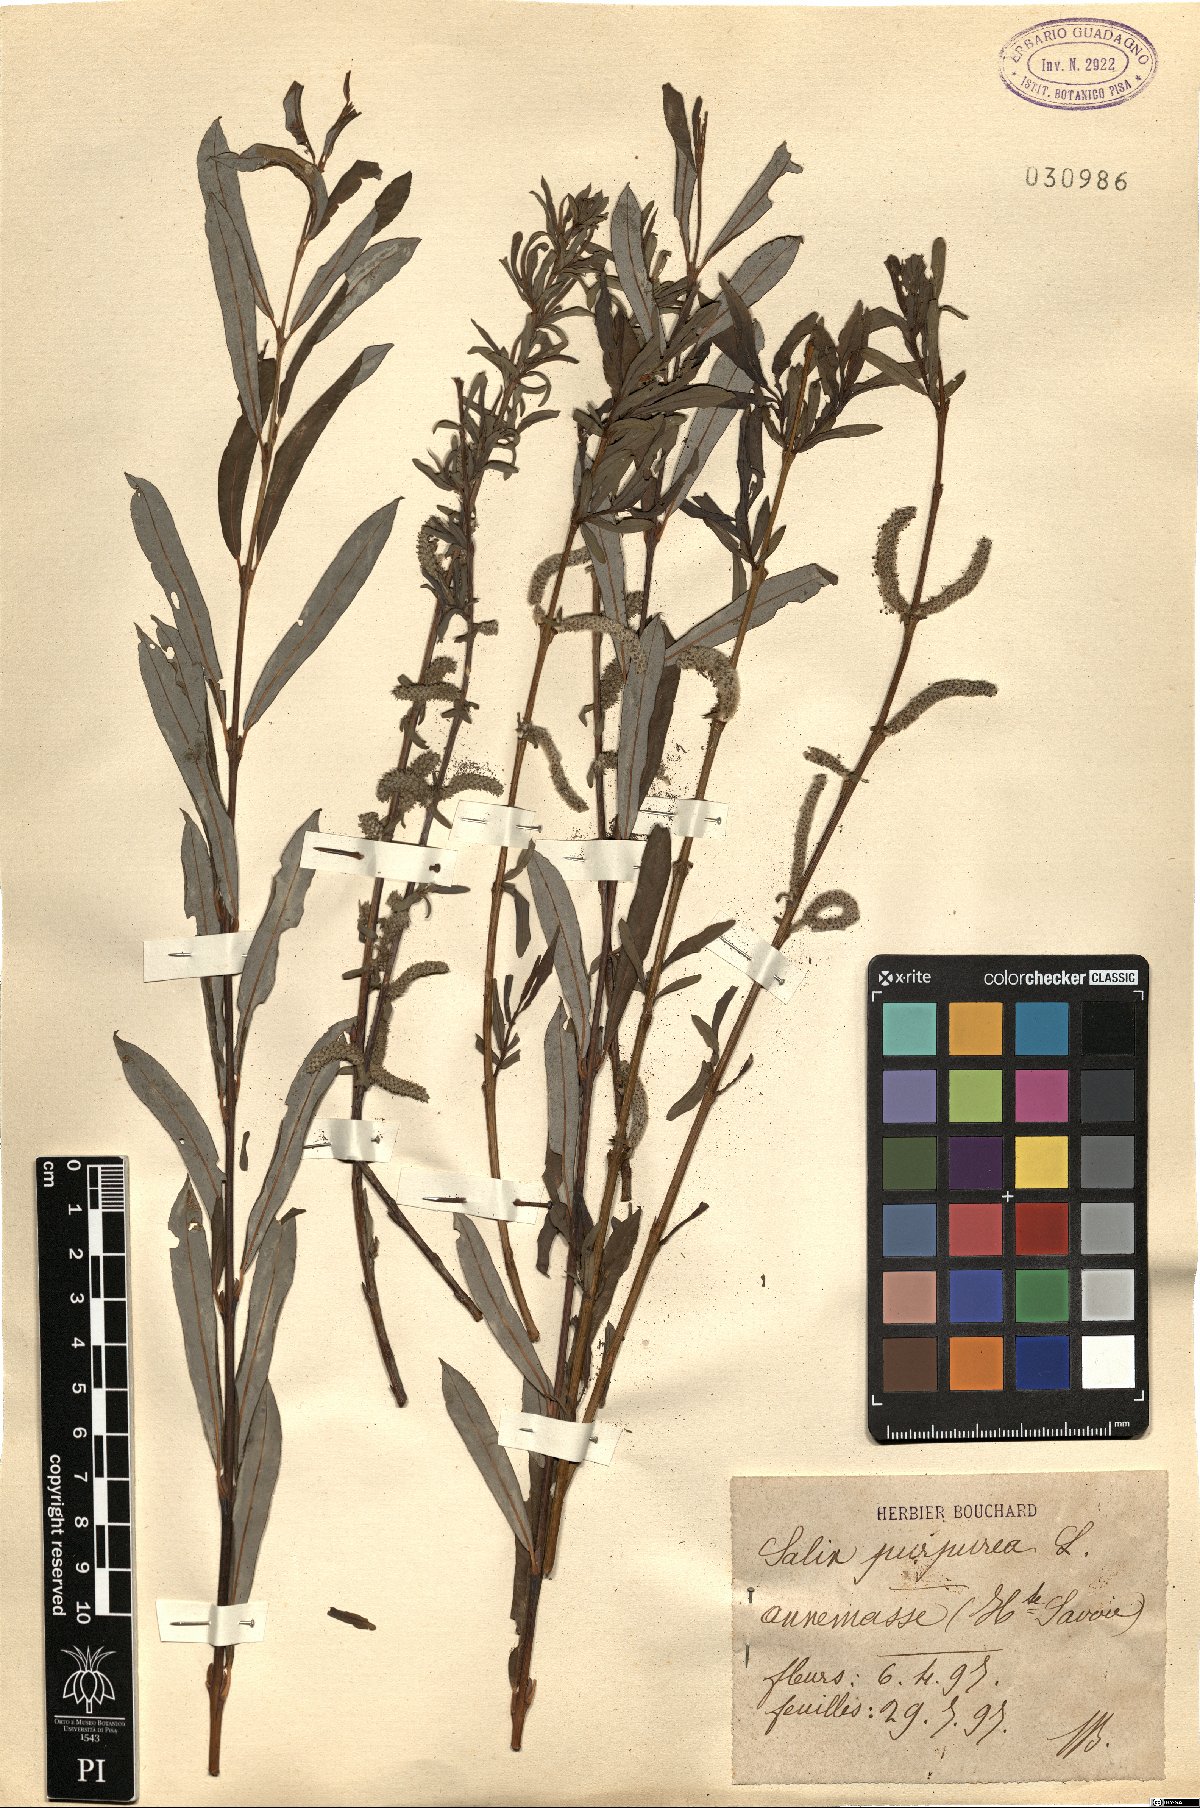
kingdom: Plantae
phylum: Tracheophyta
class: Magnoliopsida
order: Malpighiales
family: Salicaceae
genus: Salix
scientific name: Salix purpurea
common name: Purple willow
